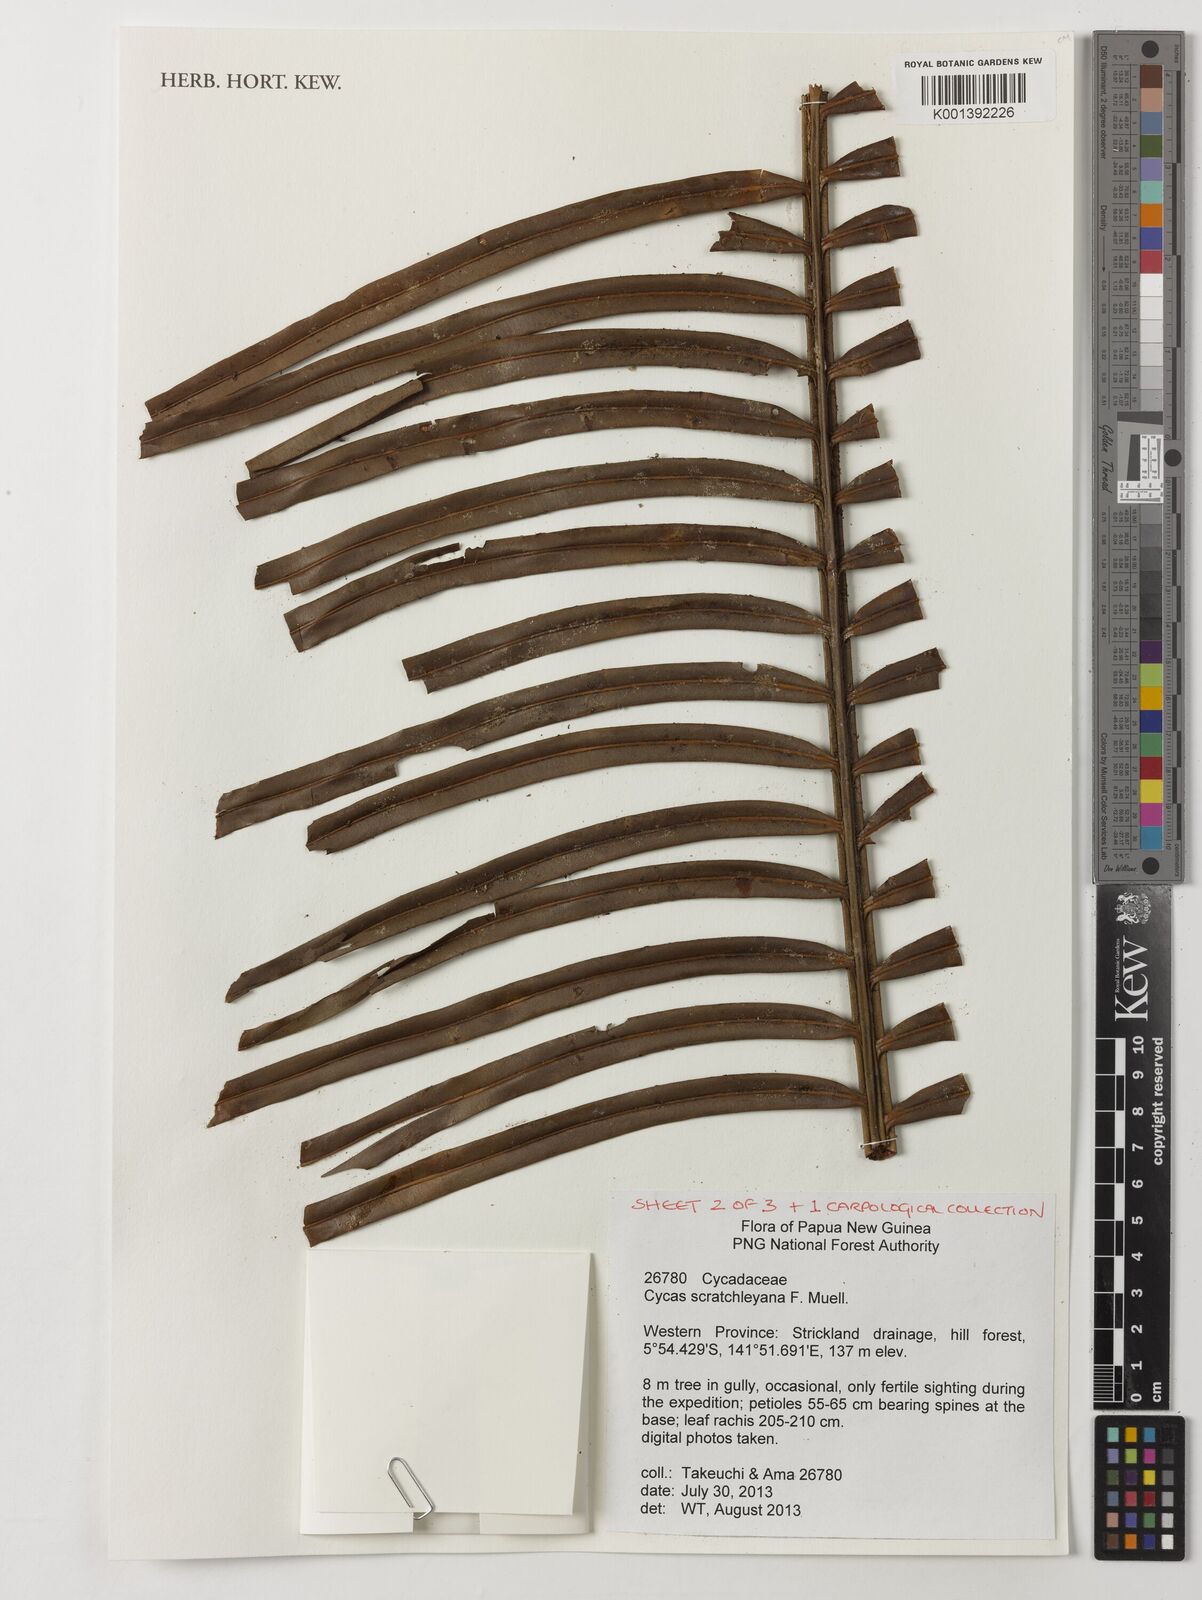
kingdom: Plantae
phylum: Tracheophyta
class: Cycadopsida
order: Cycadales
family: Cycadaceae
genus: Cycas
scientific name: Cycas scratchleyana
